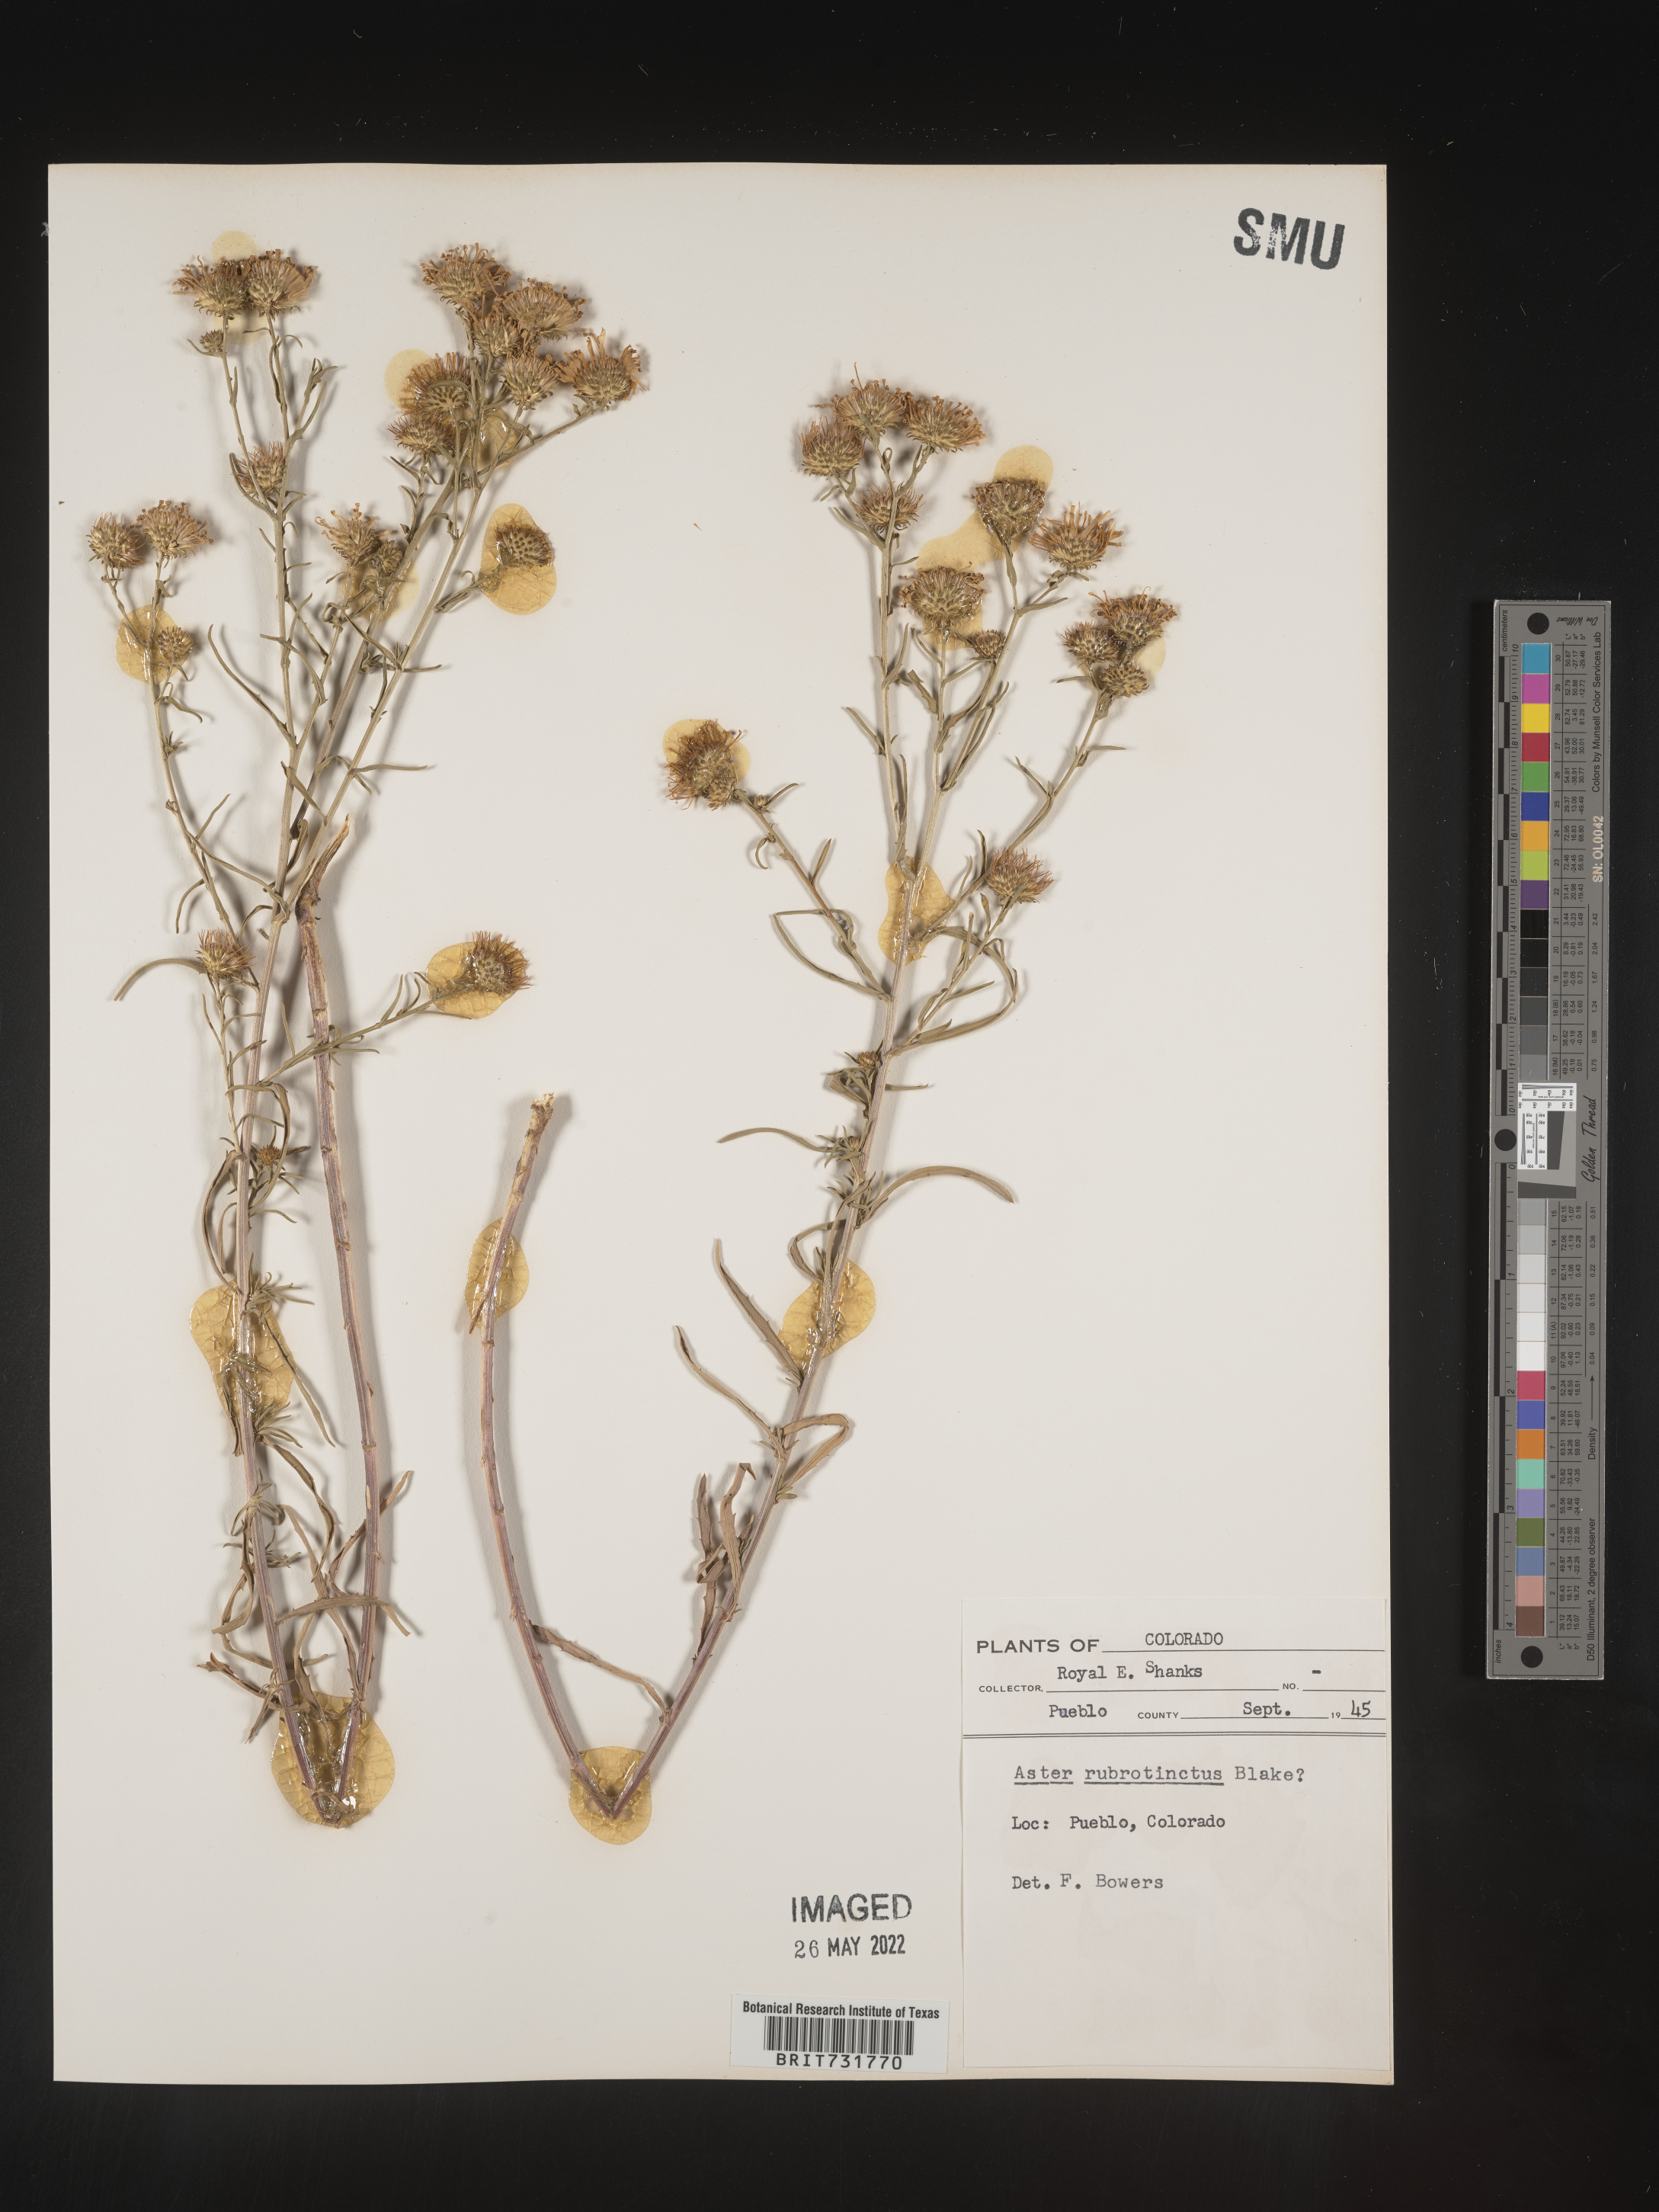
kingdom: Plantae
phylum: Tracheophyta
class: Magnoliopsida
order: Asterales
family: Asteraceae
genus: Machaeranthera
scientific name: Machaeranthera
